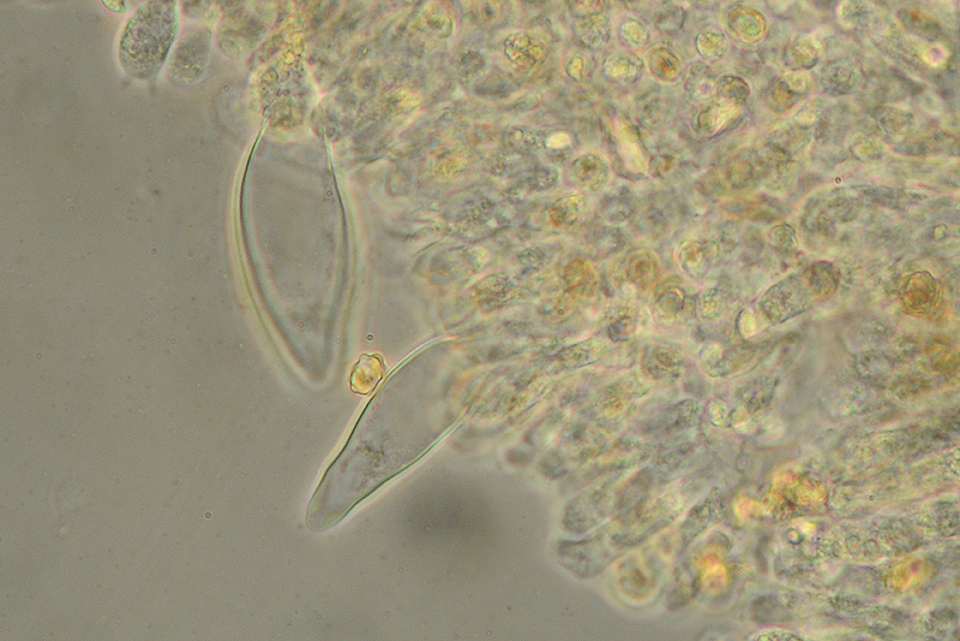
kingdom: Fungi
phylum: Basidiomycota
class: Agaricomycetes
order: Agaricales
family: Inocybaceae
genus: Inocybe
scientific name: Inocybe assimilata
